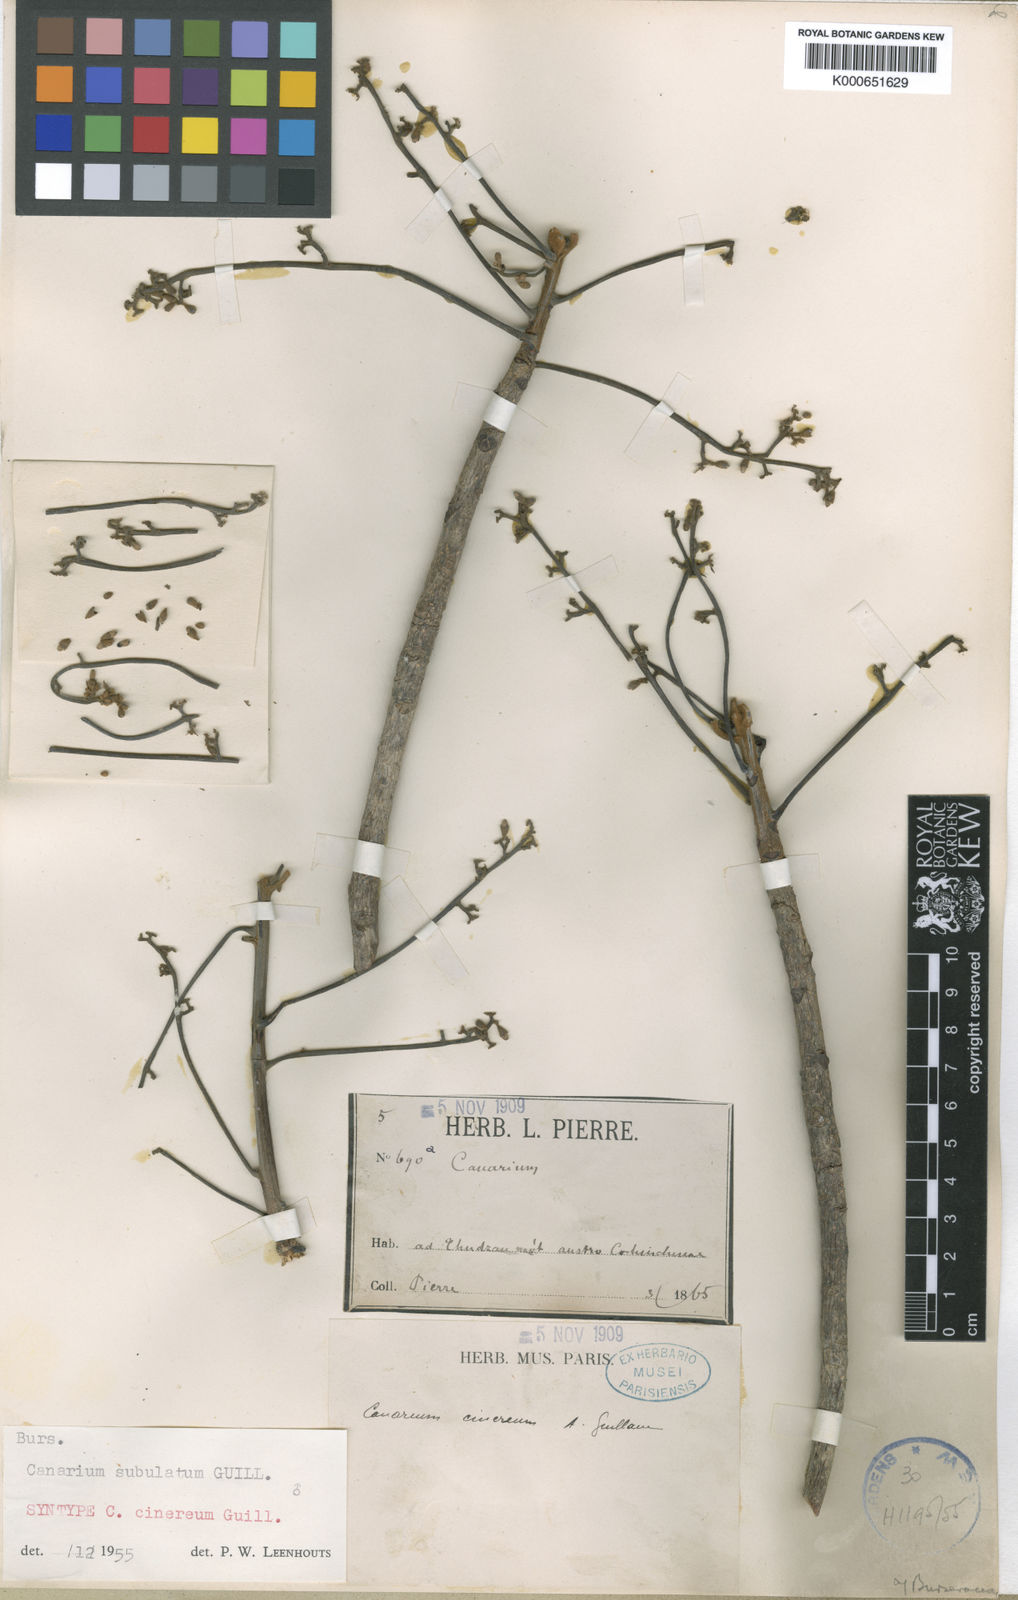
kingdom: Plantae
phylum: Tracheophyta
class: Magnoliopsida
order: Sapindales
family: Burseraceae
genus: Canarium
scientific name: Canarium subulatum
